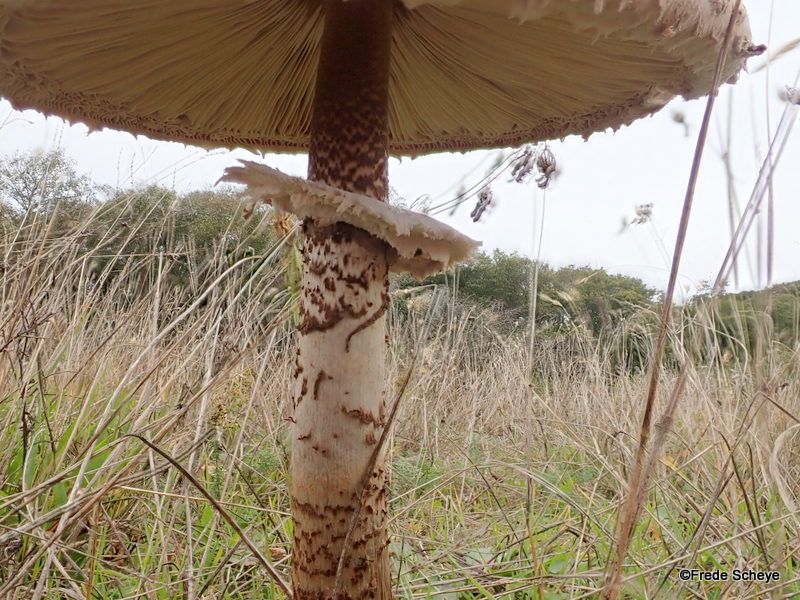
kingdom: Fungi
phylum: Basidiomycota
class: Agaricomycetes
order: Agaricales
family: Agaricaceae
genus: Macrolepiota
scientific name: Macrolepiota procera
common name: stor kæmpeparasolhat
